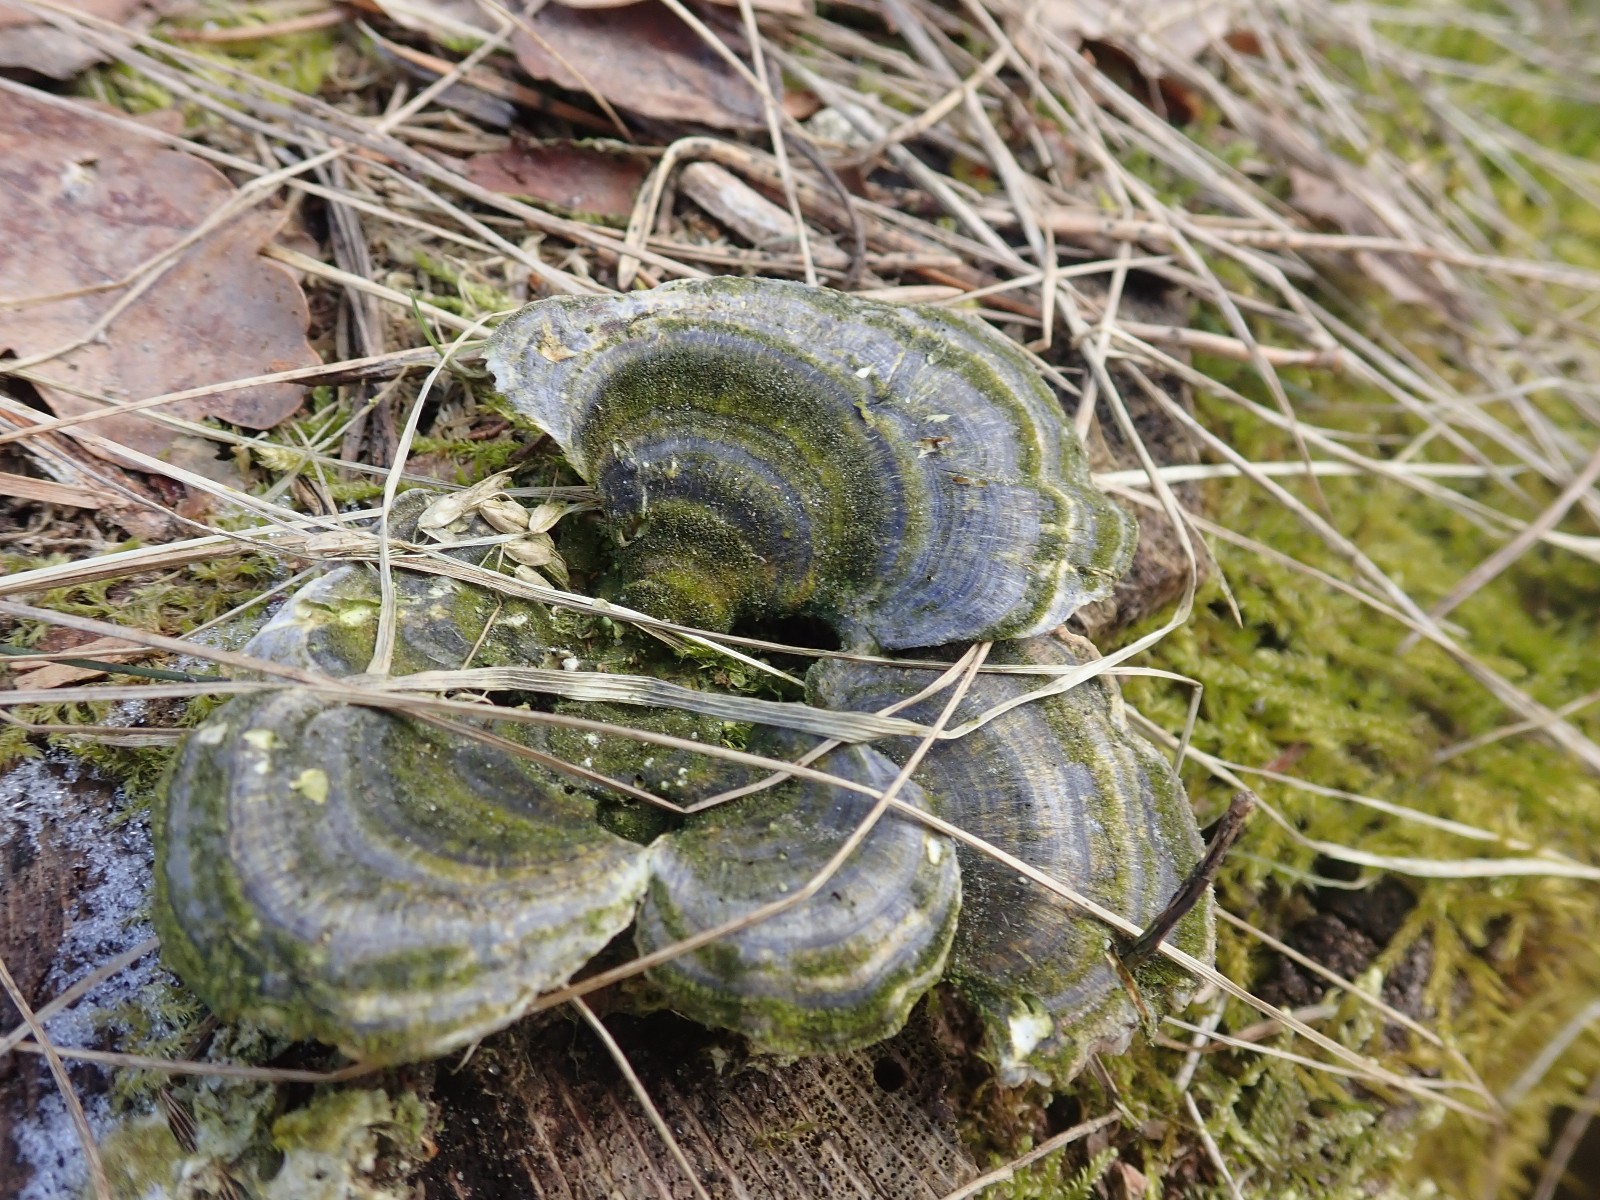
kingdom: Fungi
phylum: Basidiomycota
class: Agaricomycetes
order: Polyporales
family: Polyporaceae
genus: Trametes
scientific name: Trametes versicolor
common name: broget læderporesvamp
